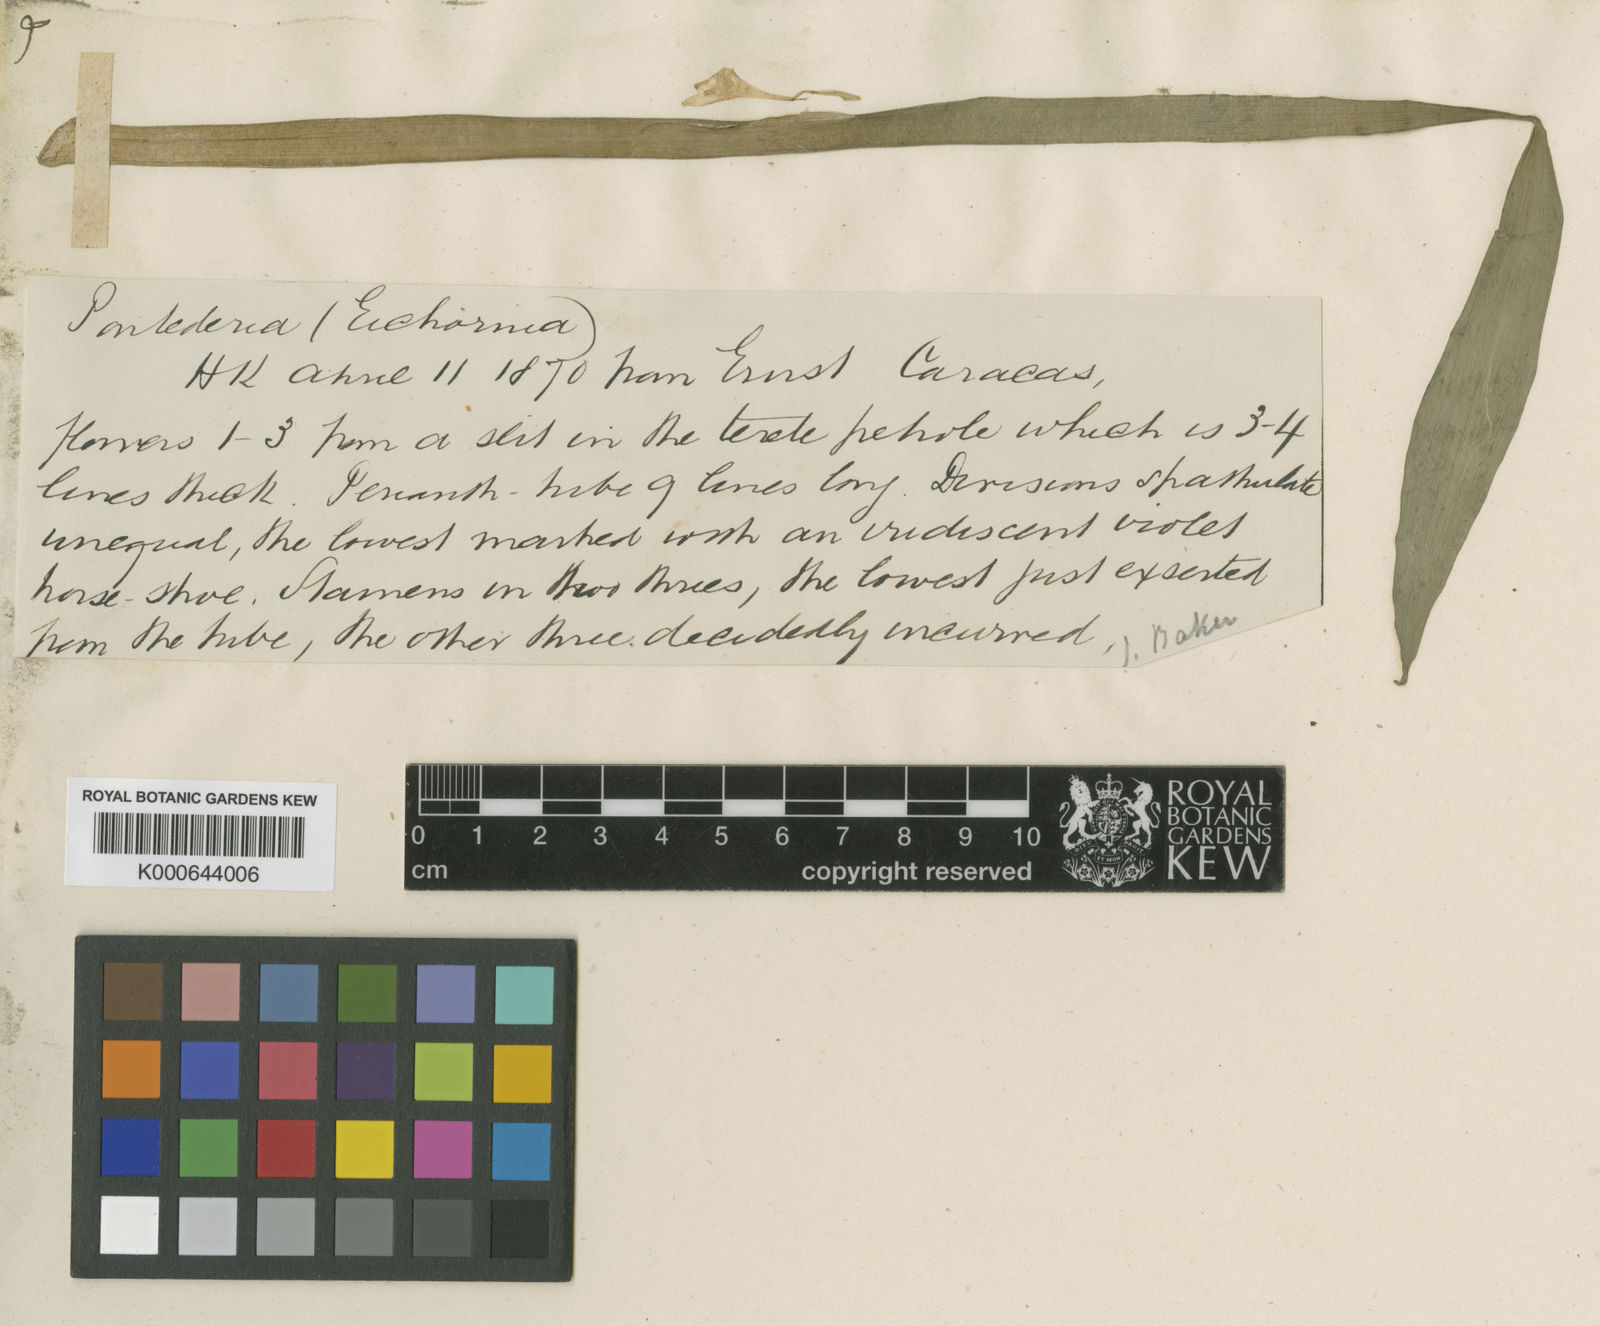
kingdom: Plantae
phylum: Tracheophyta
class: Liliopsida
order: Commelinales
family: Pontederiaceae
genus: Pontederia
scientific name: Pontederia paradoxa
